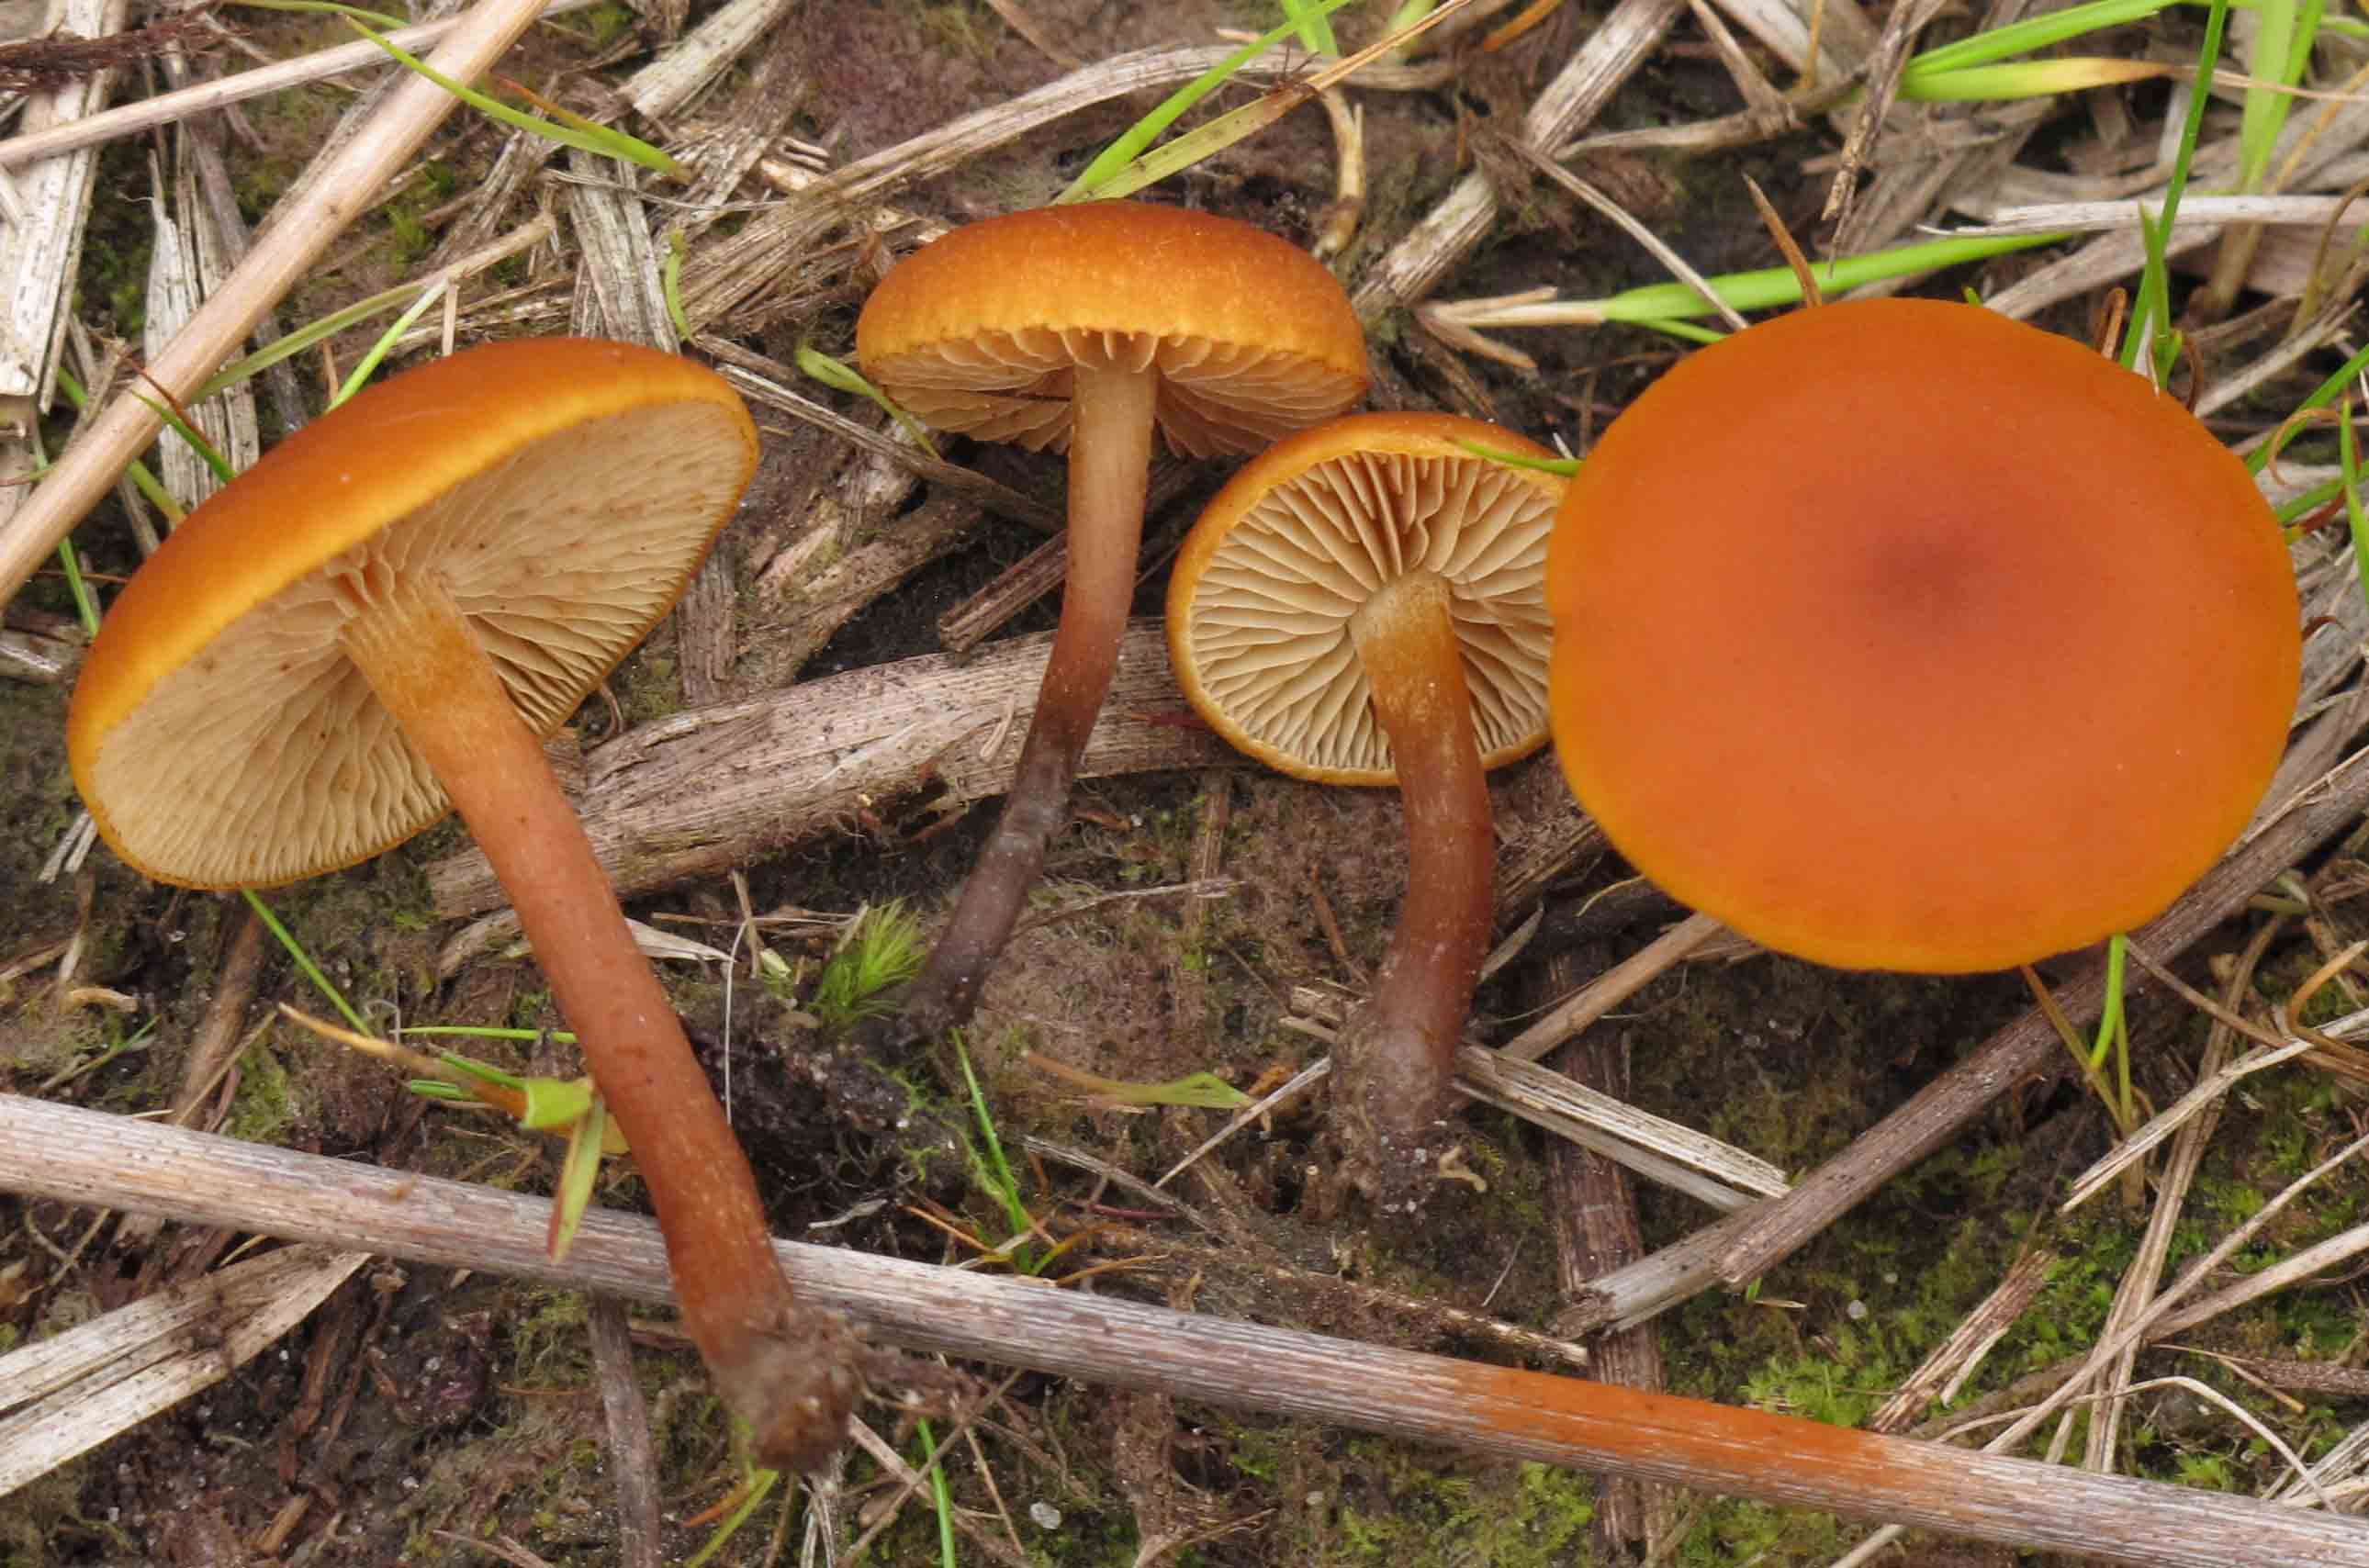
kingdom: Fungi
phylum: Basidiomycota
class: Agaricomycetes
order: Agaricales
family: Hymenogastraceae
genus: Gymnopilus
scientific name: Gymnopilus fulgens
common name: tørve-flammehat
